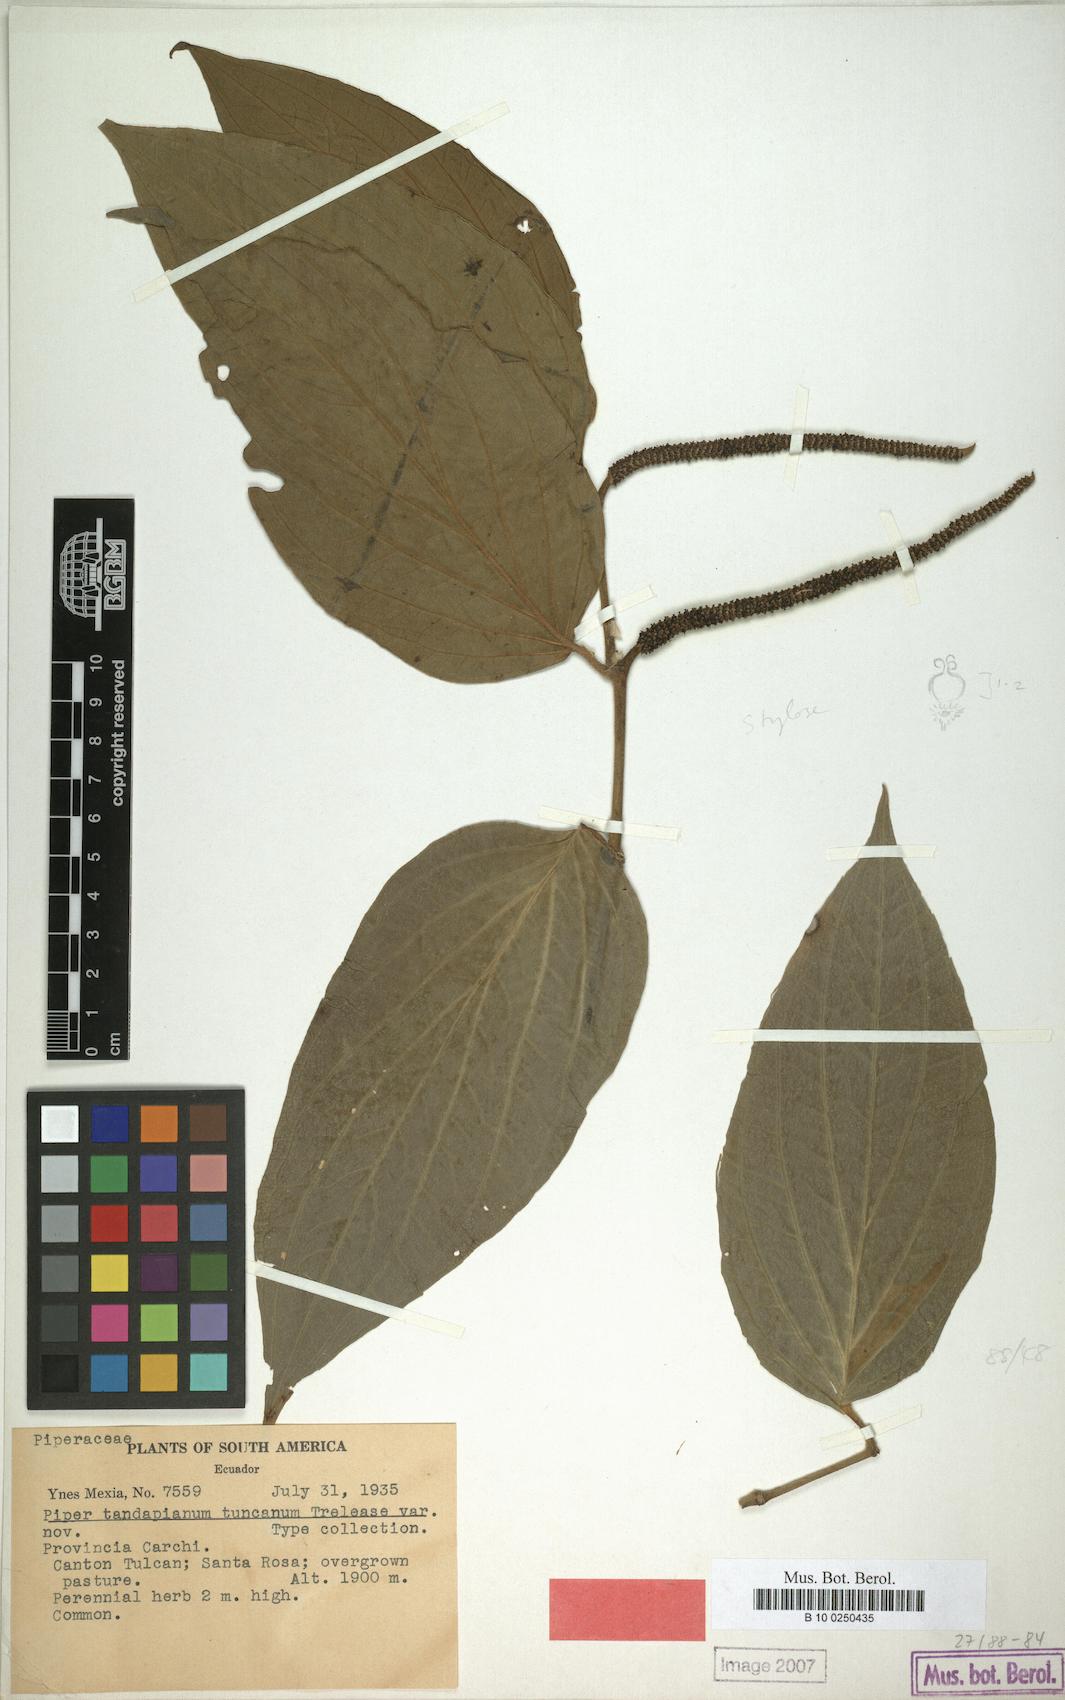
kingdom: Plantae
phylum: Tracheophyta
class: Magnoliopsida
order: Piperales
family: Piperaceae
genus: Piper
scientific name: Piper
